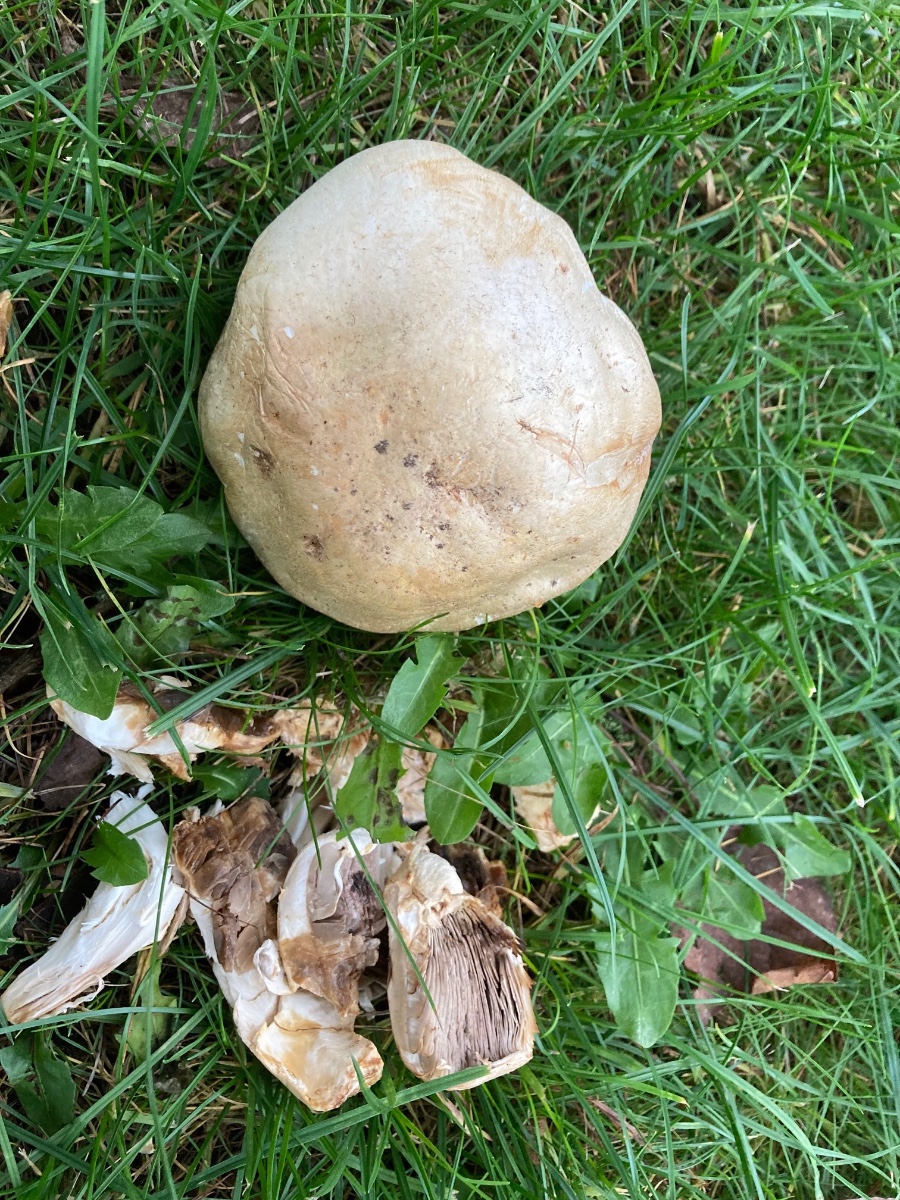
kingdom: Fungi
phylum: Basidiomycota
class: Agaricomycetes
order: Agaricales
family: Agaricaceae
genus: Agaricus
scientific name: Agaricus arvensis
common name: ager-champignon
